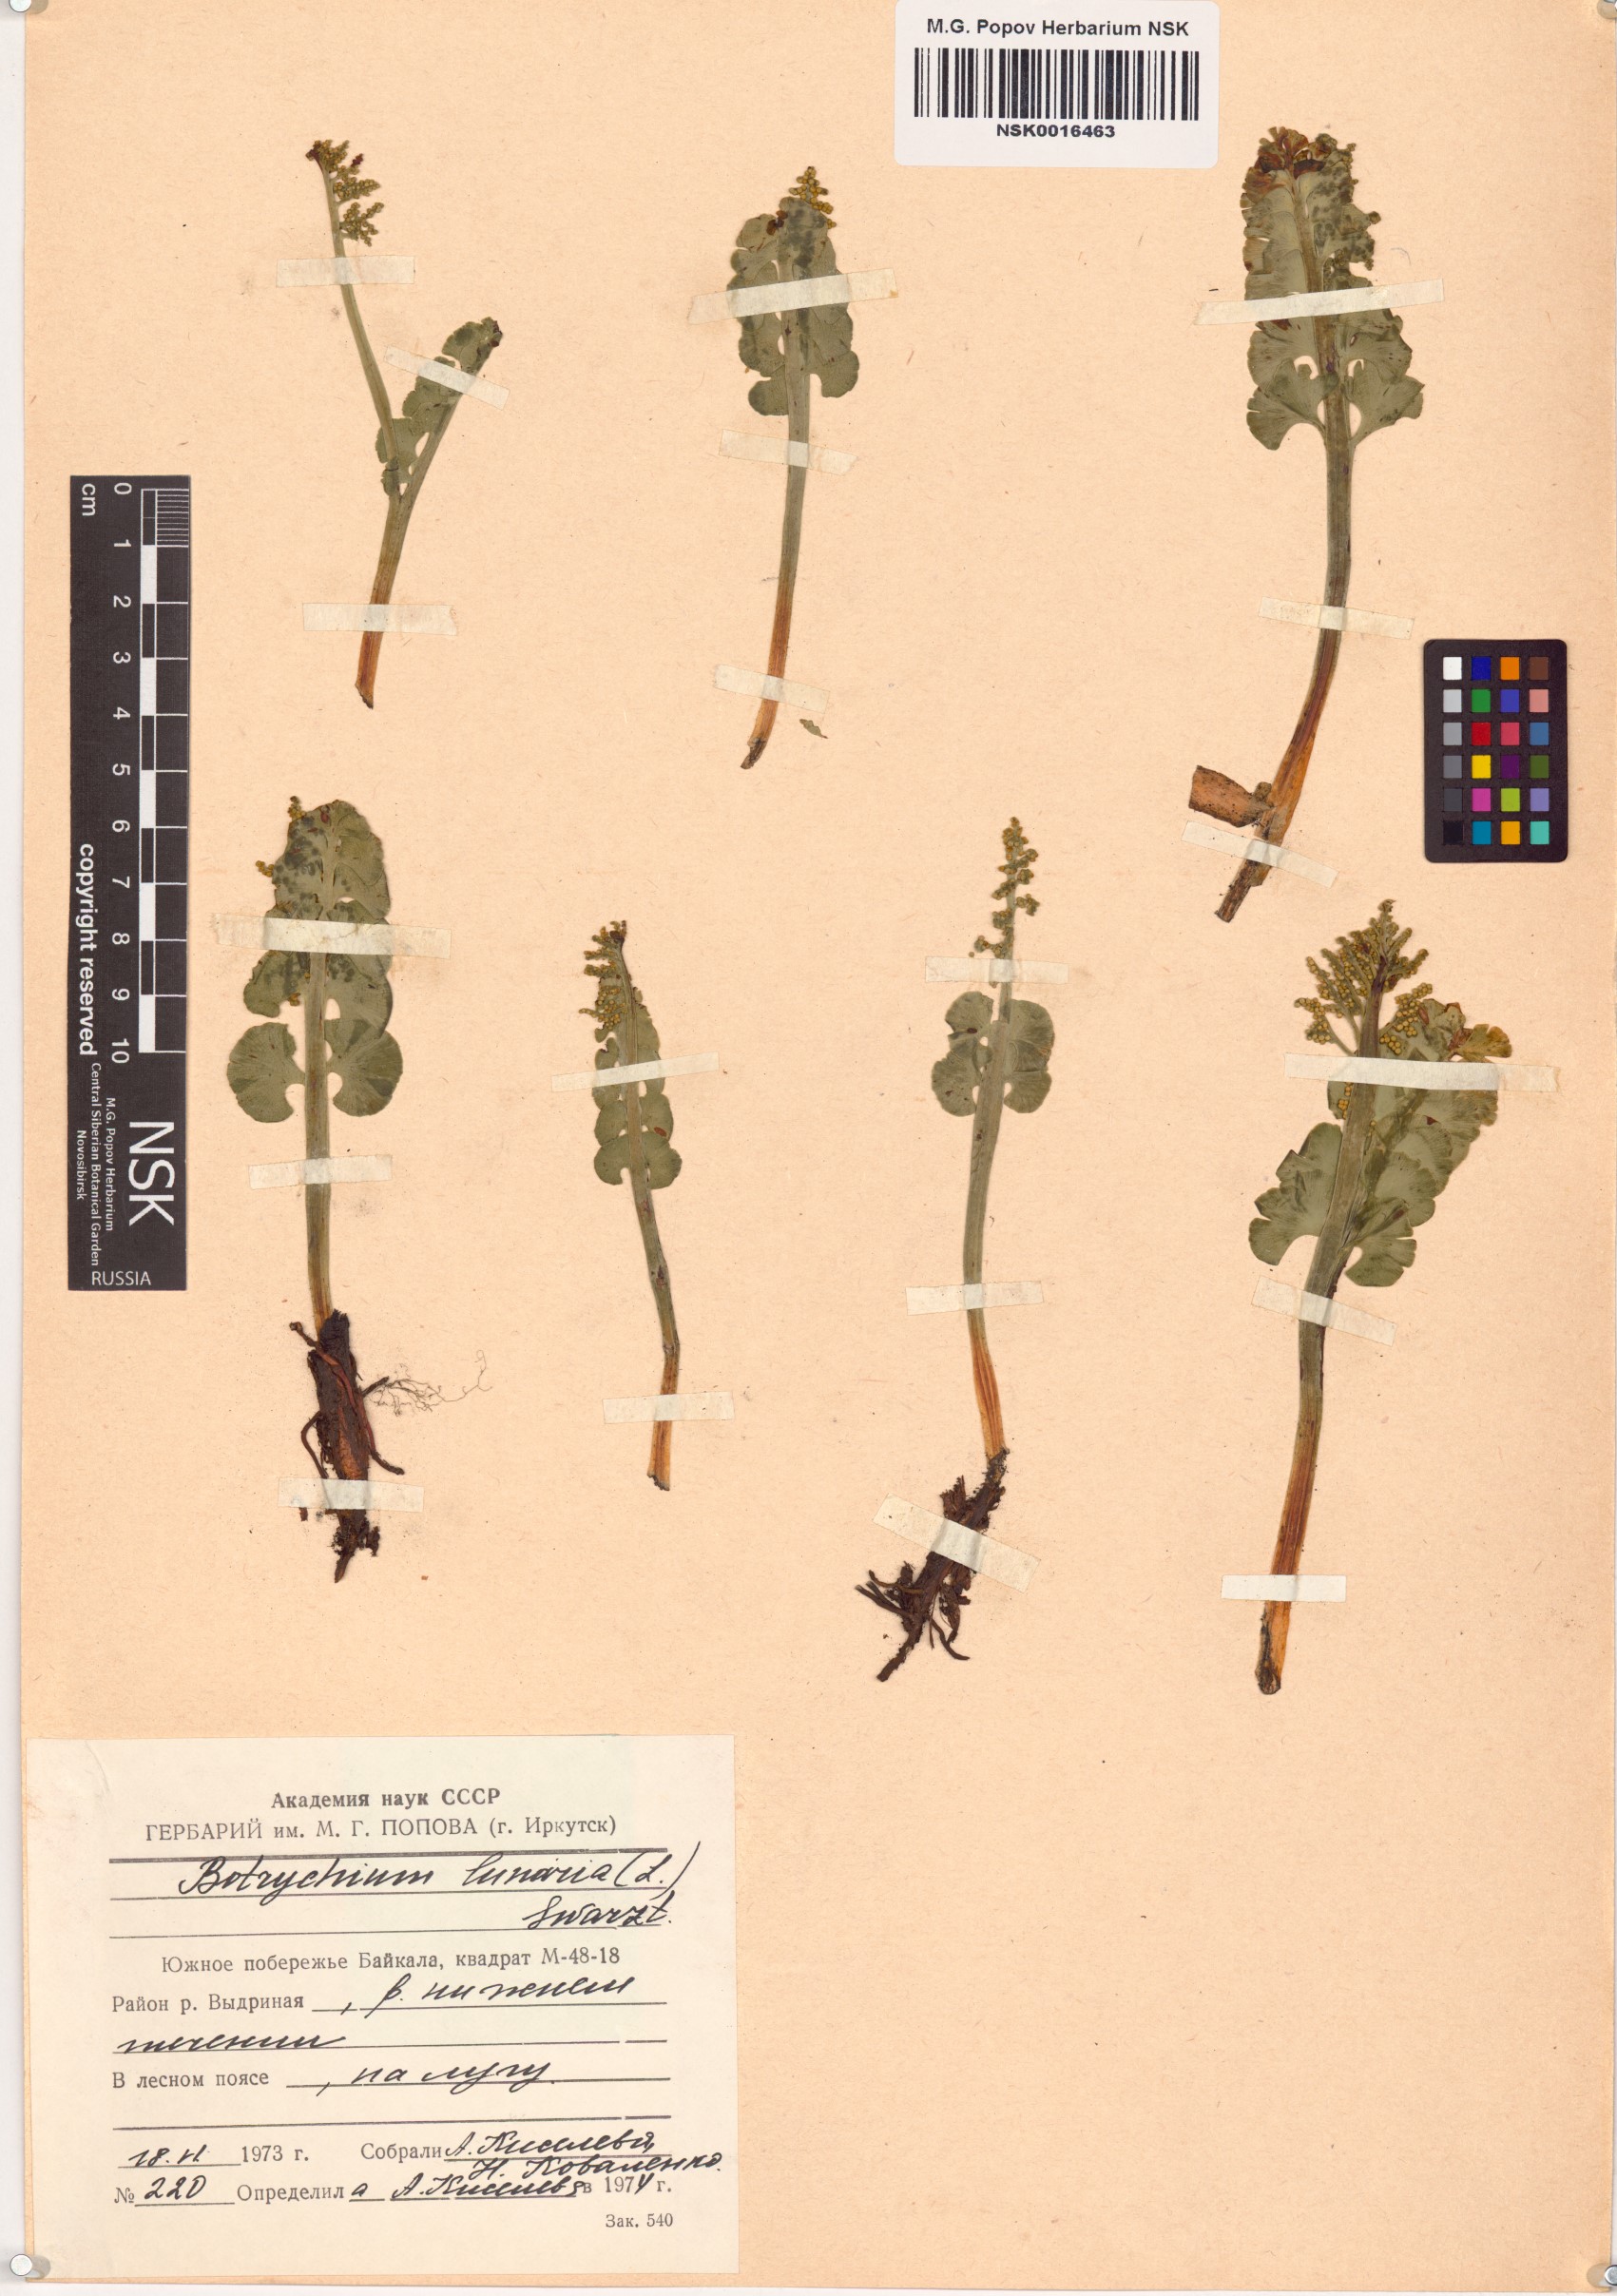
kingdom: Plantae
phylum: Tracheophyta
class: Polypodiopsida
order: Ophioglossales
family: Ophioglossaceae
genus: Botrychium
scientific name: Botrychium lunaria
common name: Moonwort
